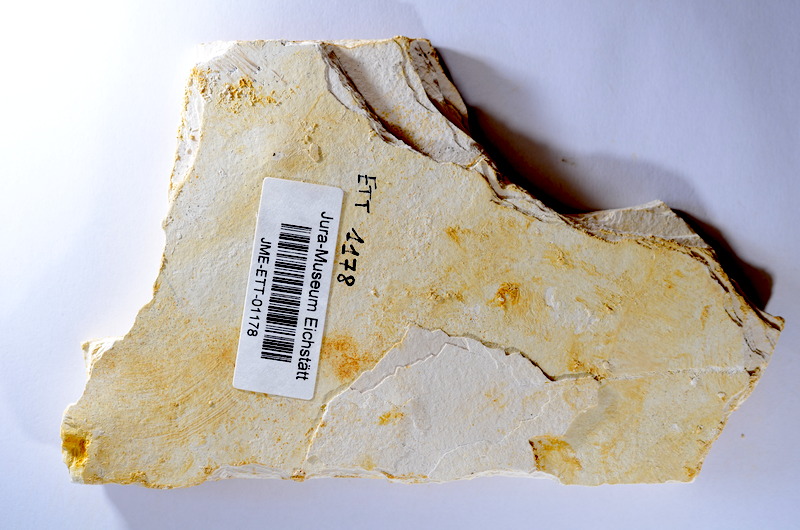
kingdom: Animalia
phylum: Chordata
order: Salmoniformes
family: Orthogonikleithridae
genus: Orthogonikleithrus
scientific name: Orthogonikleithrus hoelli
